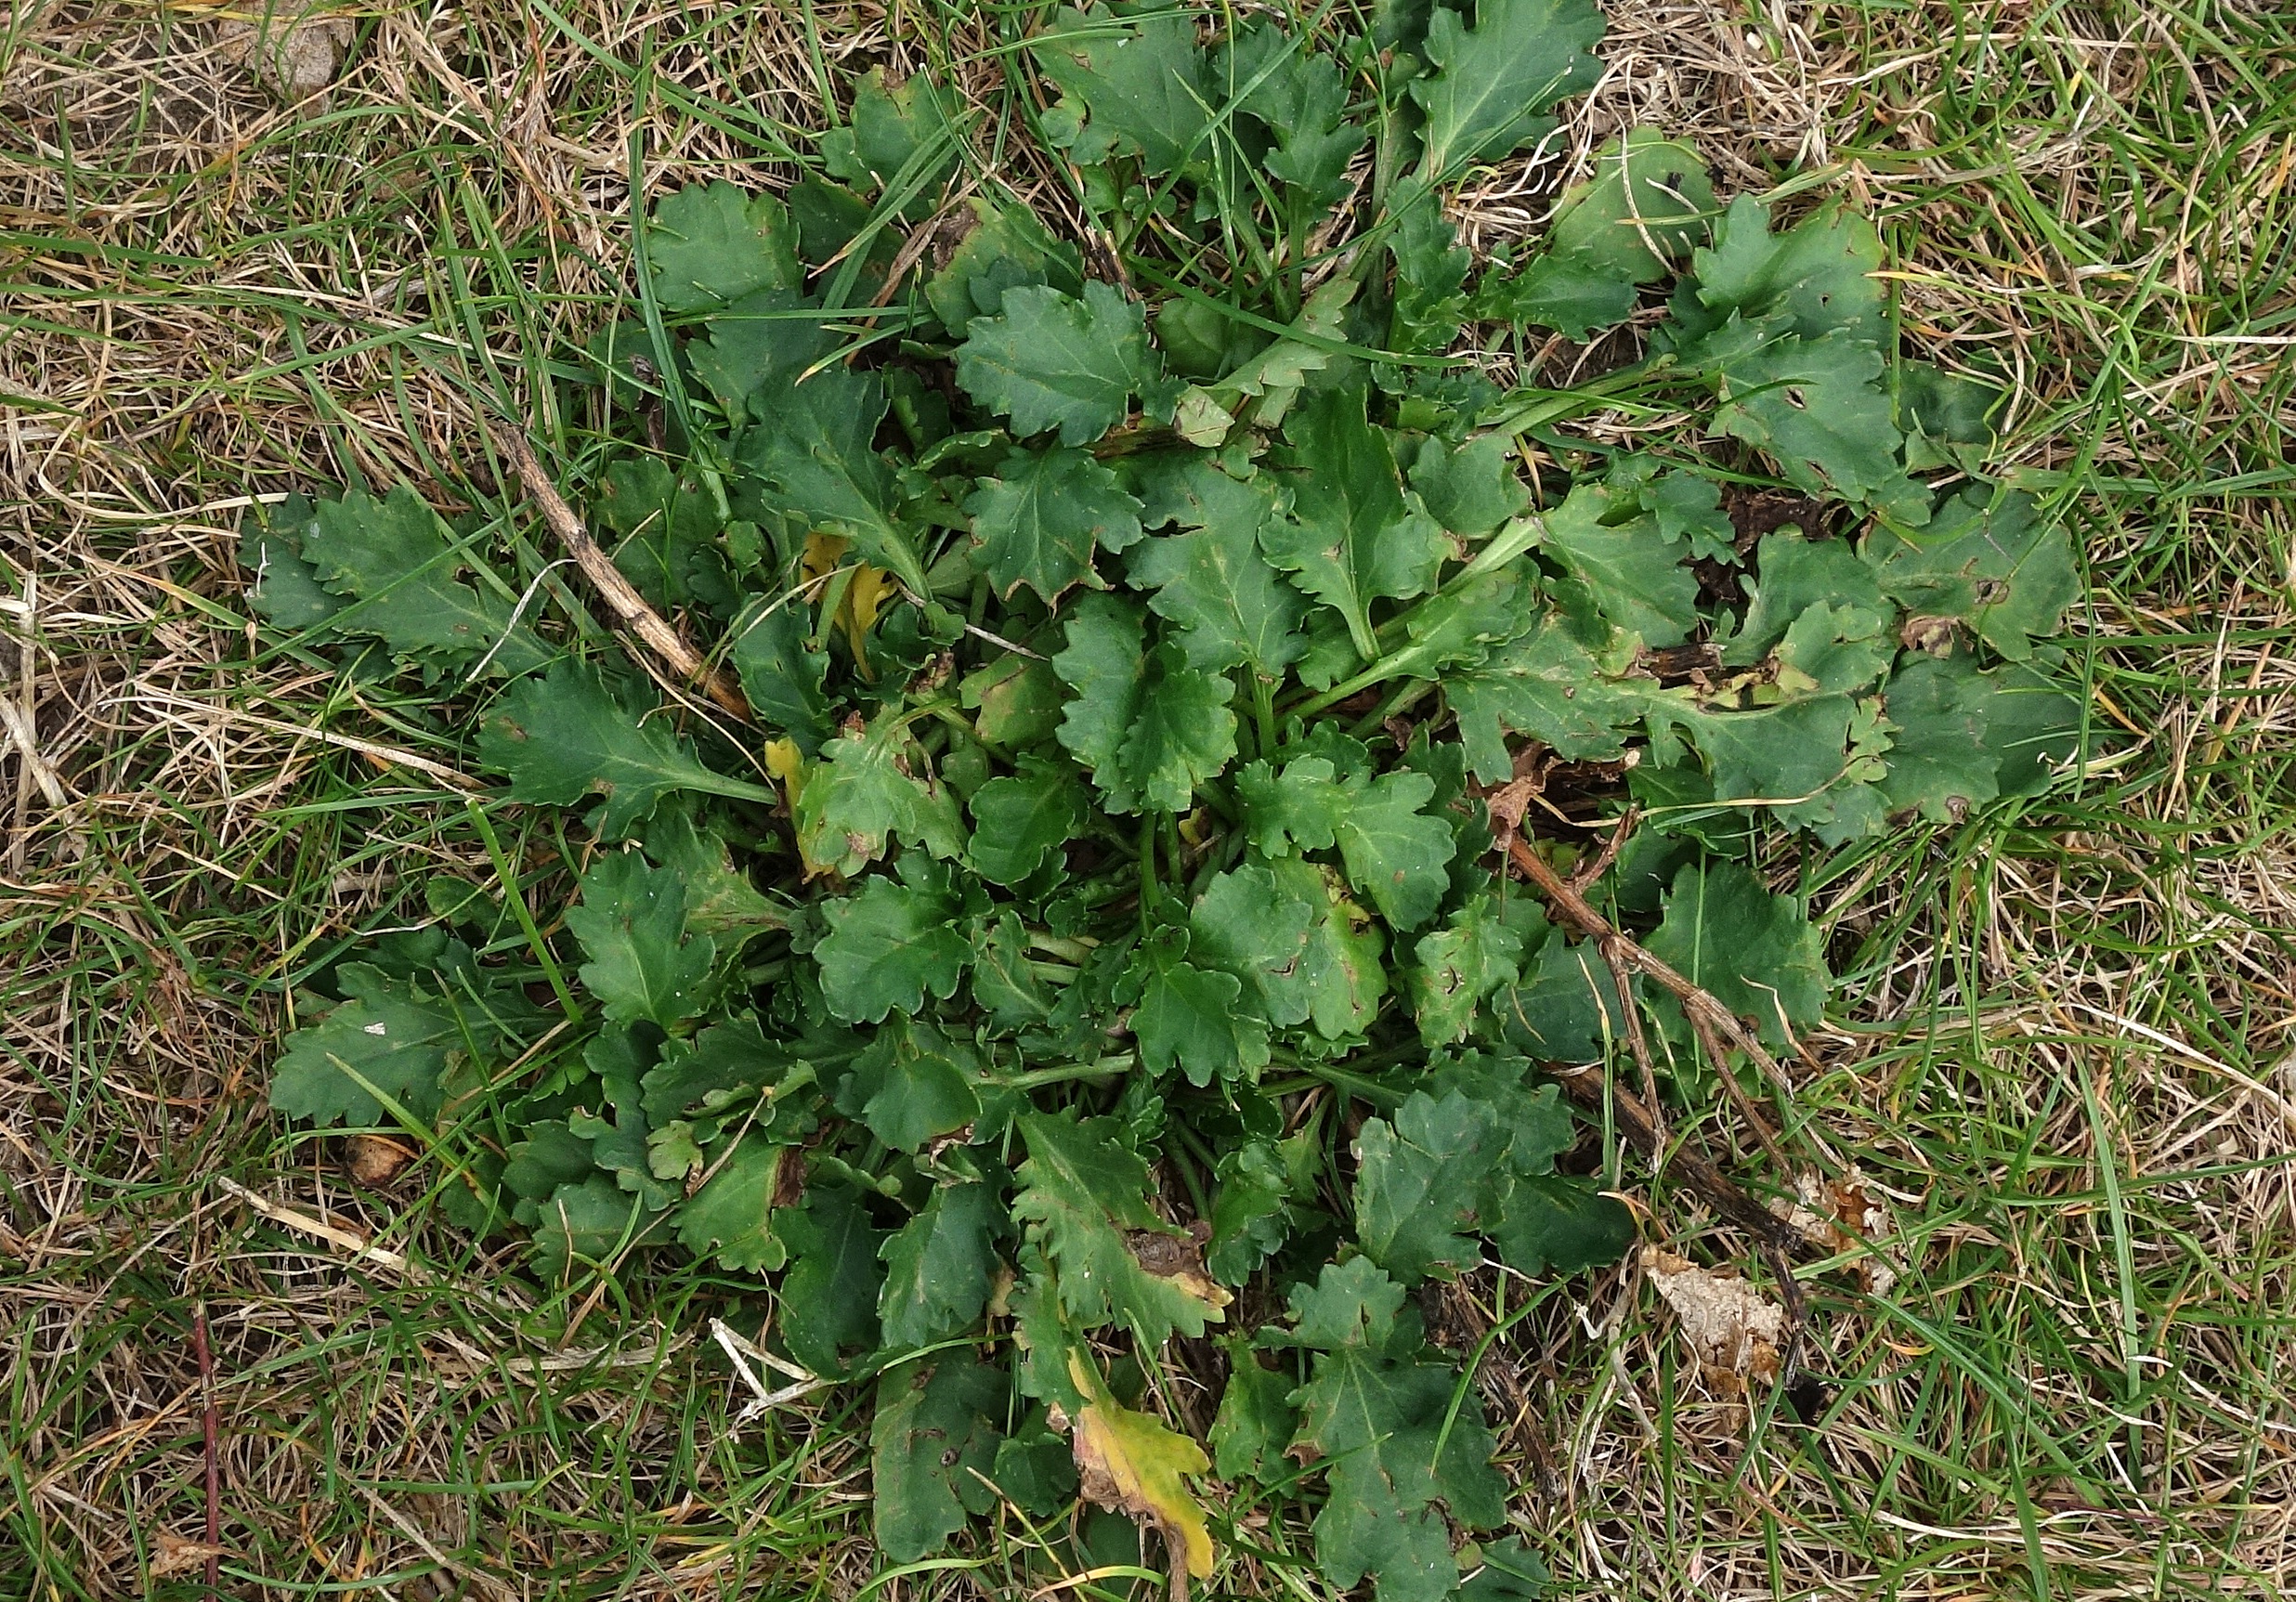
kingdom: Plantae
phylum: Tracheophyta
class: Magnoliopsida
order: Asterales
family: Asteraceae
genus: Leucanthemum
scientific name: Leucanthemum vulgare
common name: Hvid okseøje
